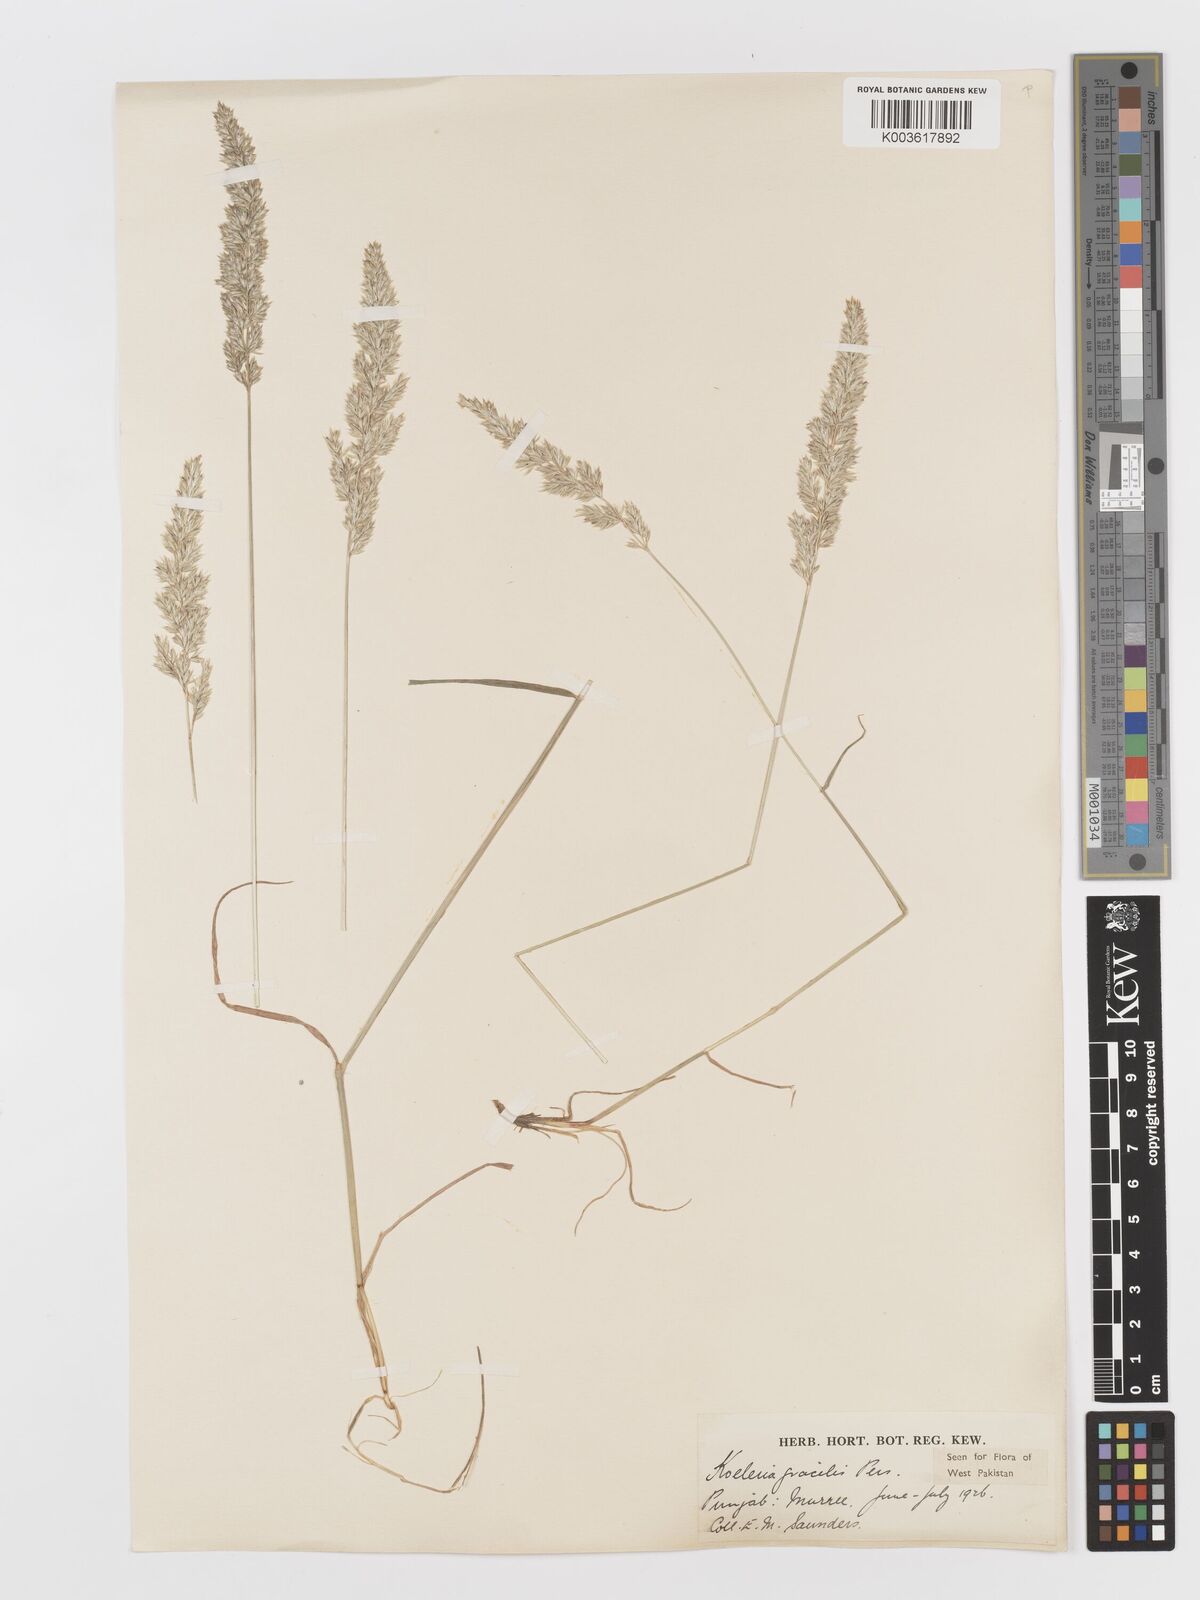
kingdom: Plantae
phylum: Tracheophyta
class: Liliopsida
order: Poales
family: Poaceae
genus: Koeleria
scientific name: Koeleria
